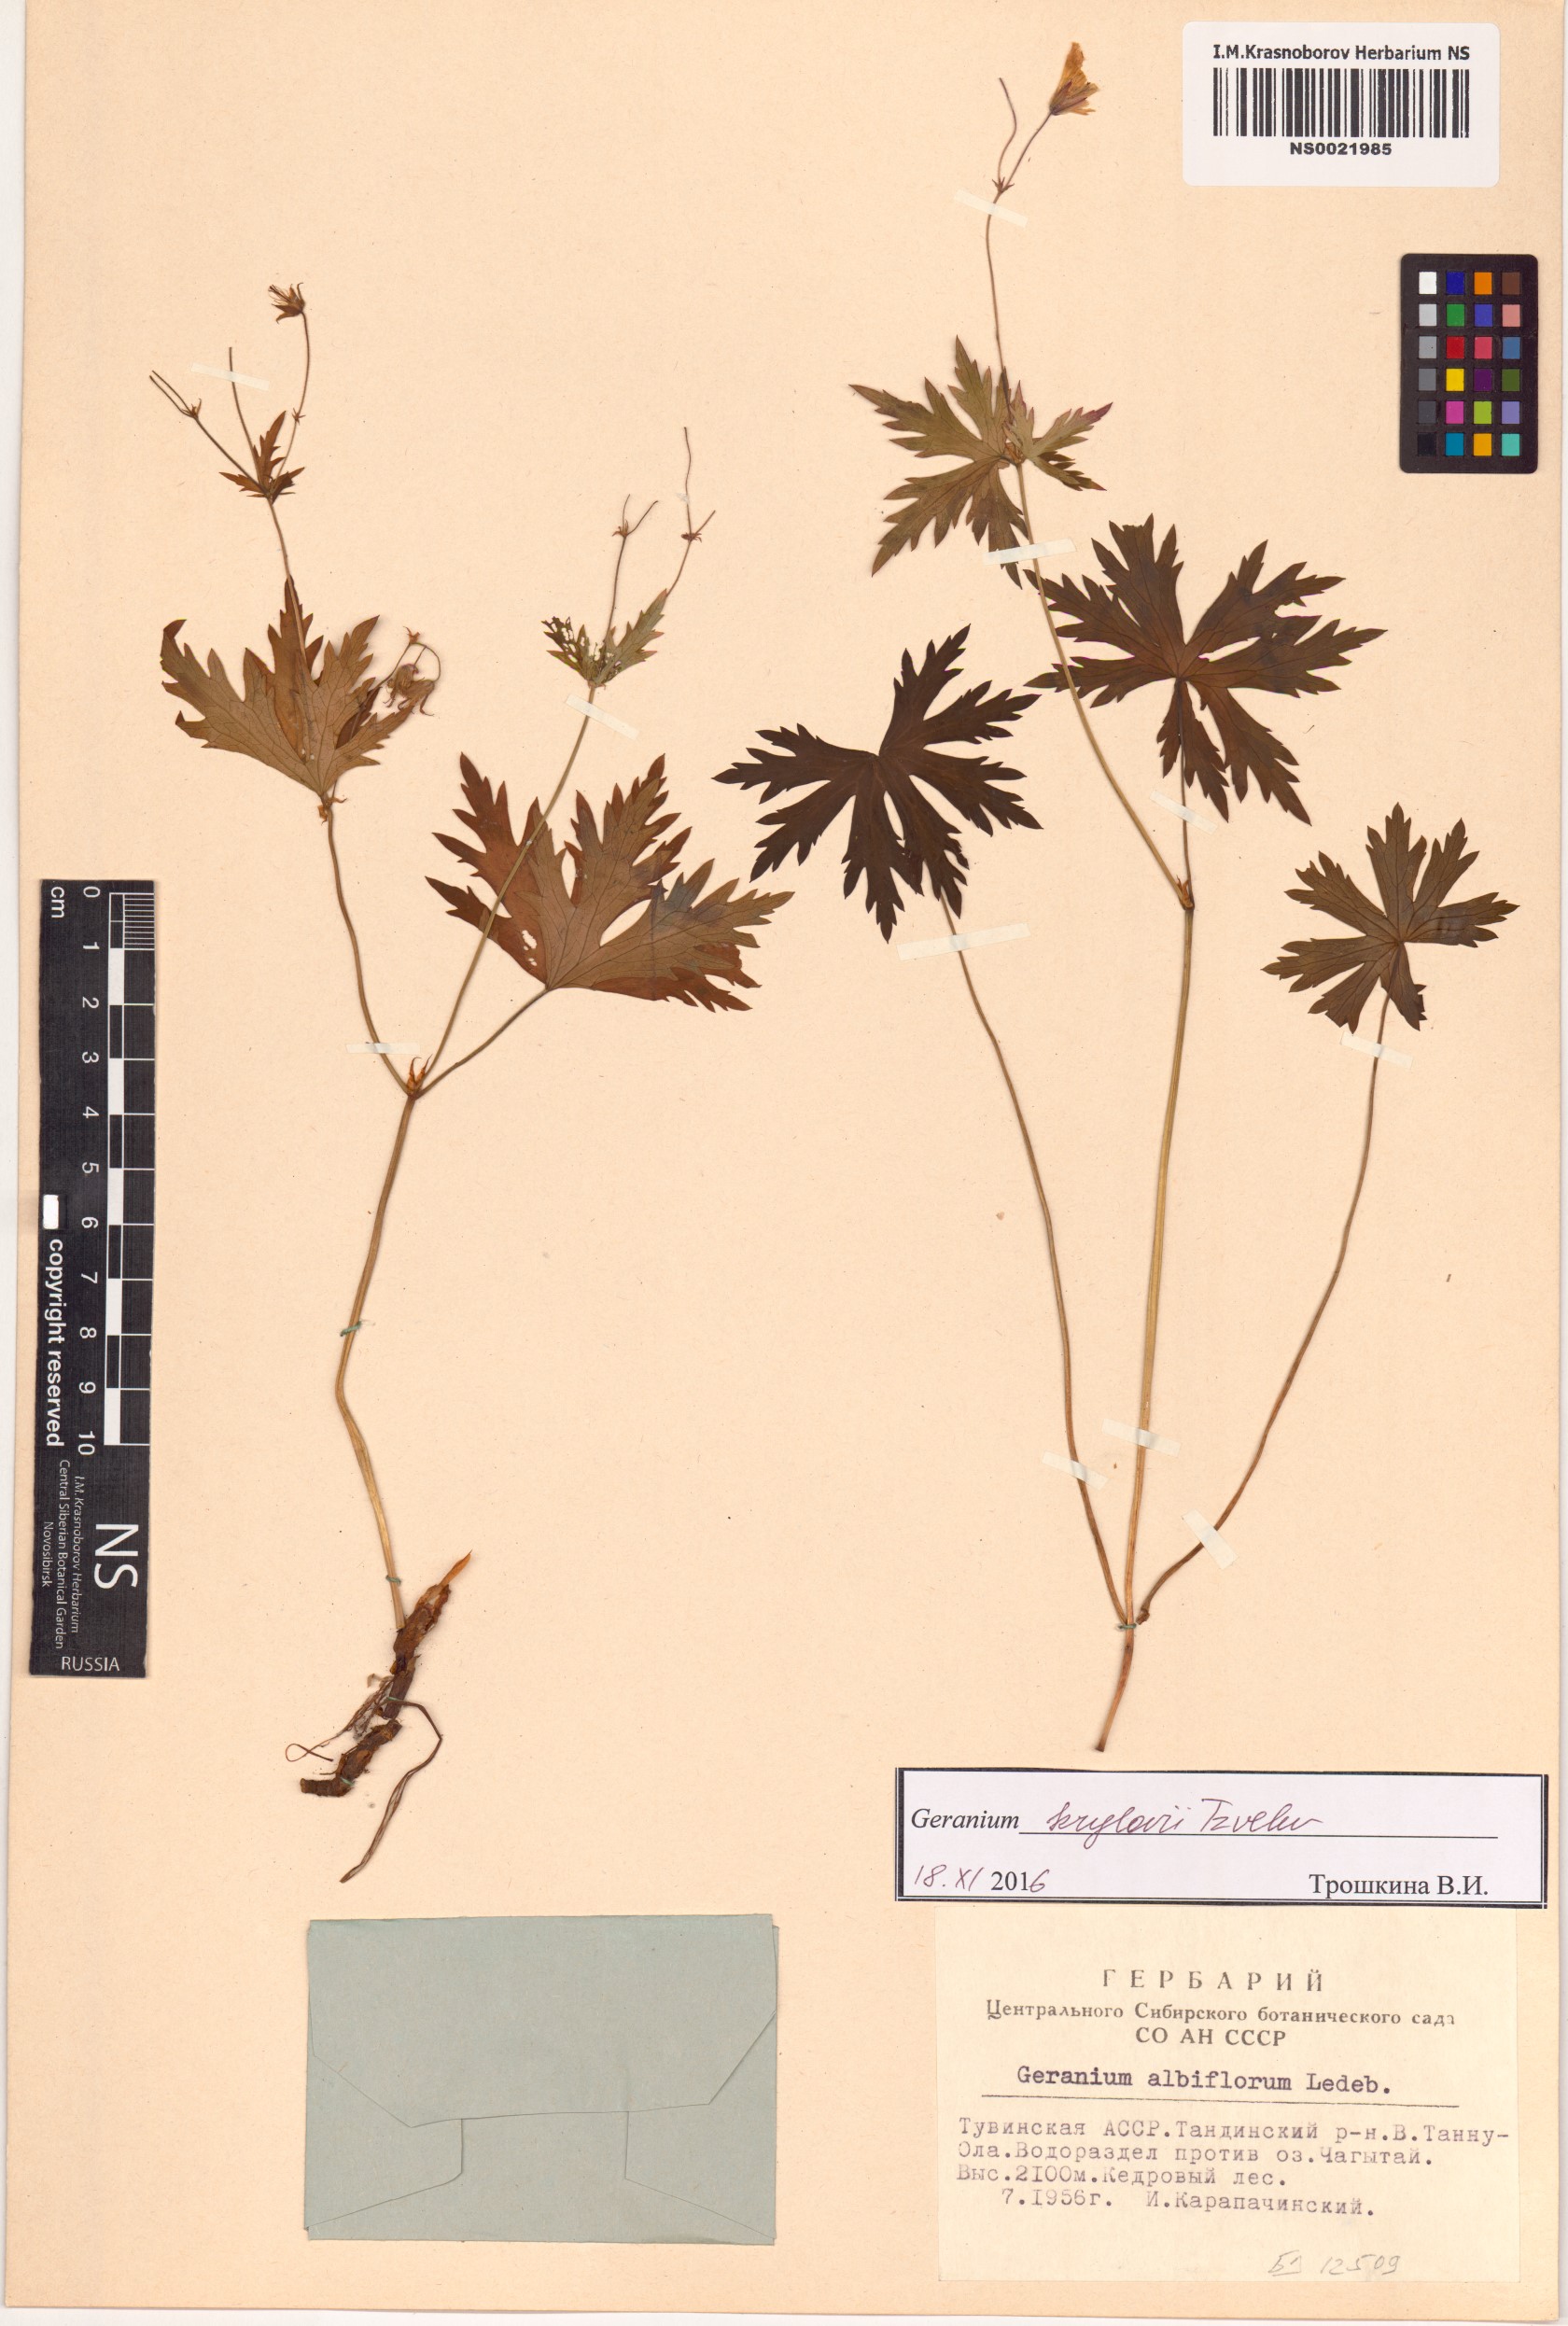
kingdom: Plantae
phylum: Tracheophyta
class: Magnoliopsida
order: Geraniales
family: Geraniaceae
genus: Geranium
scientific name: Geranium sylvaticum
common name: Wood crane's-bill
